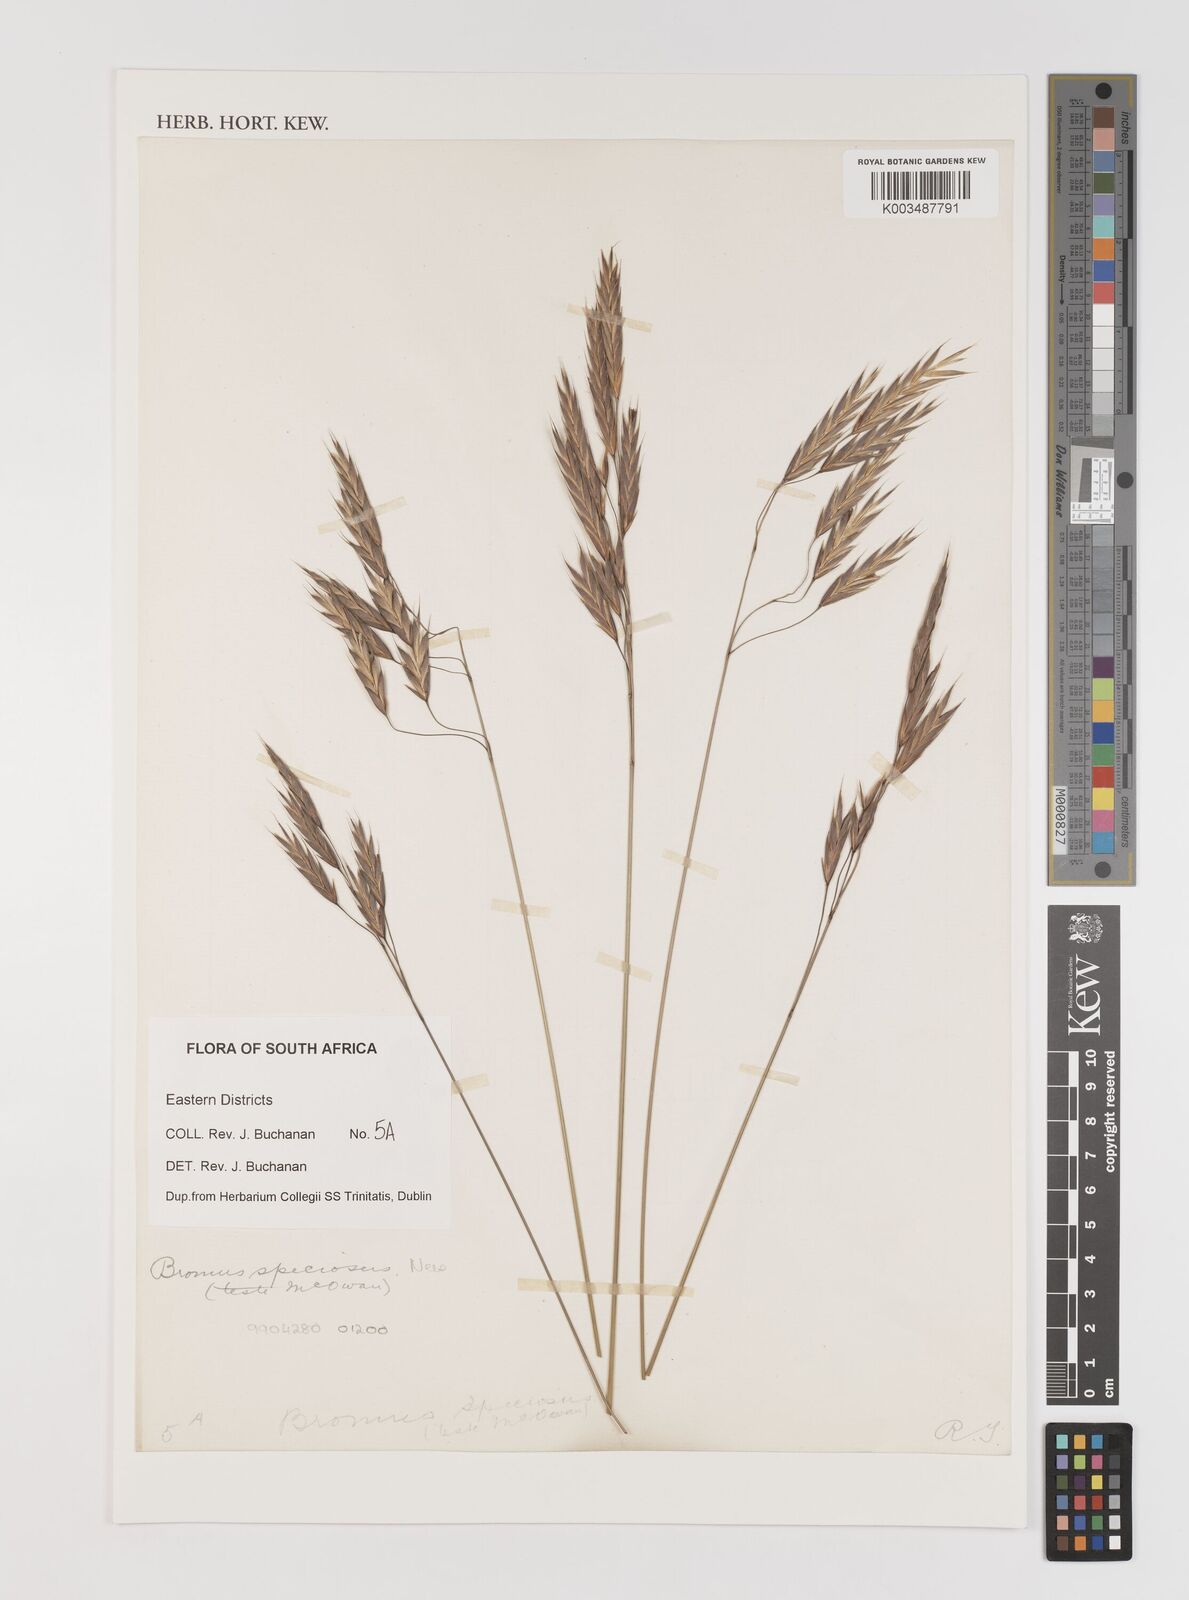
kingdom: Plantae
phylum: Tracheophyta
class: Liliopsida
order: Poales
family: Poaceae
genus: Bromus
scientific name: Bromus speciosus
